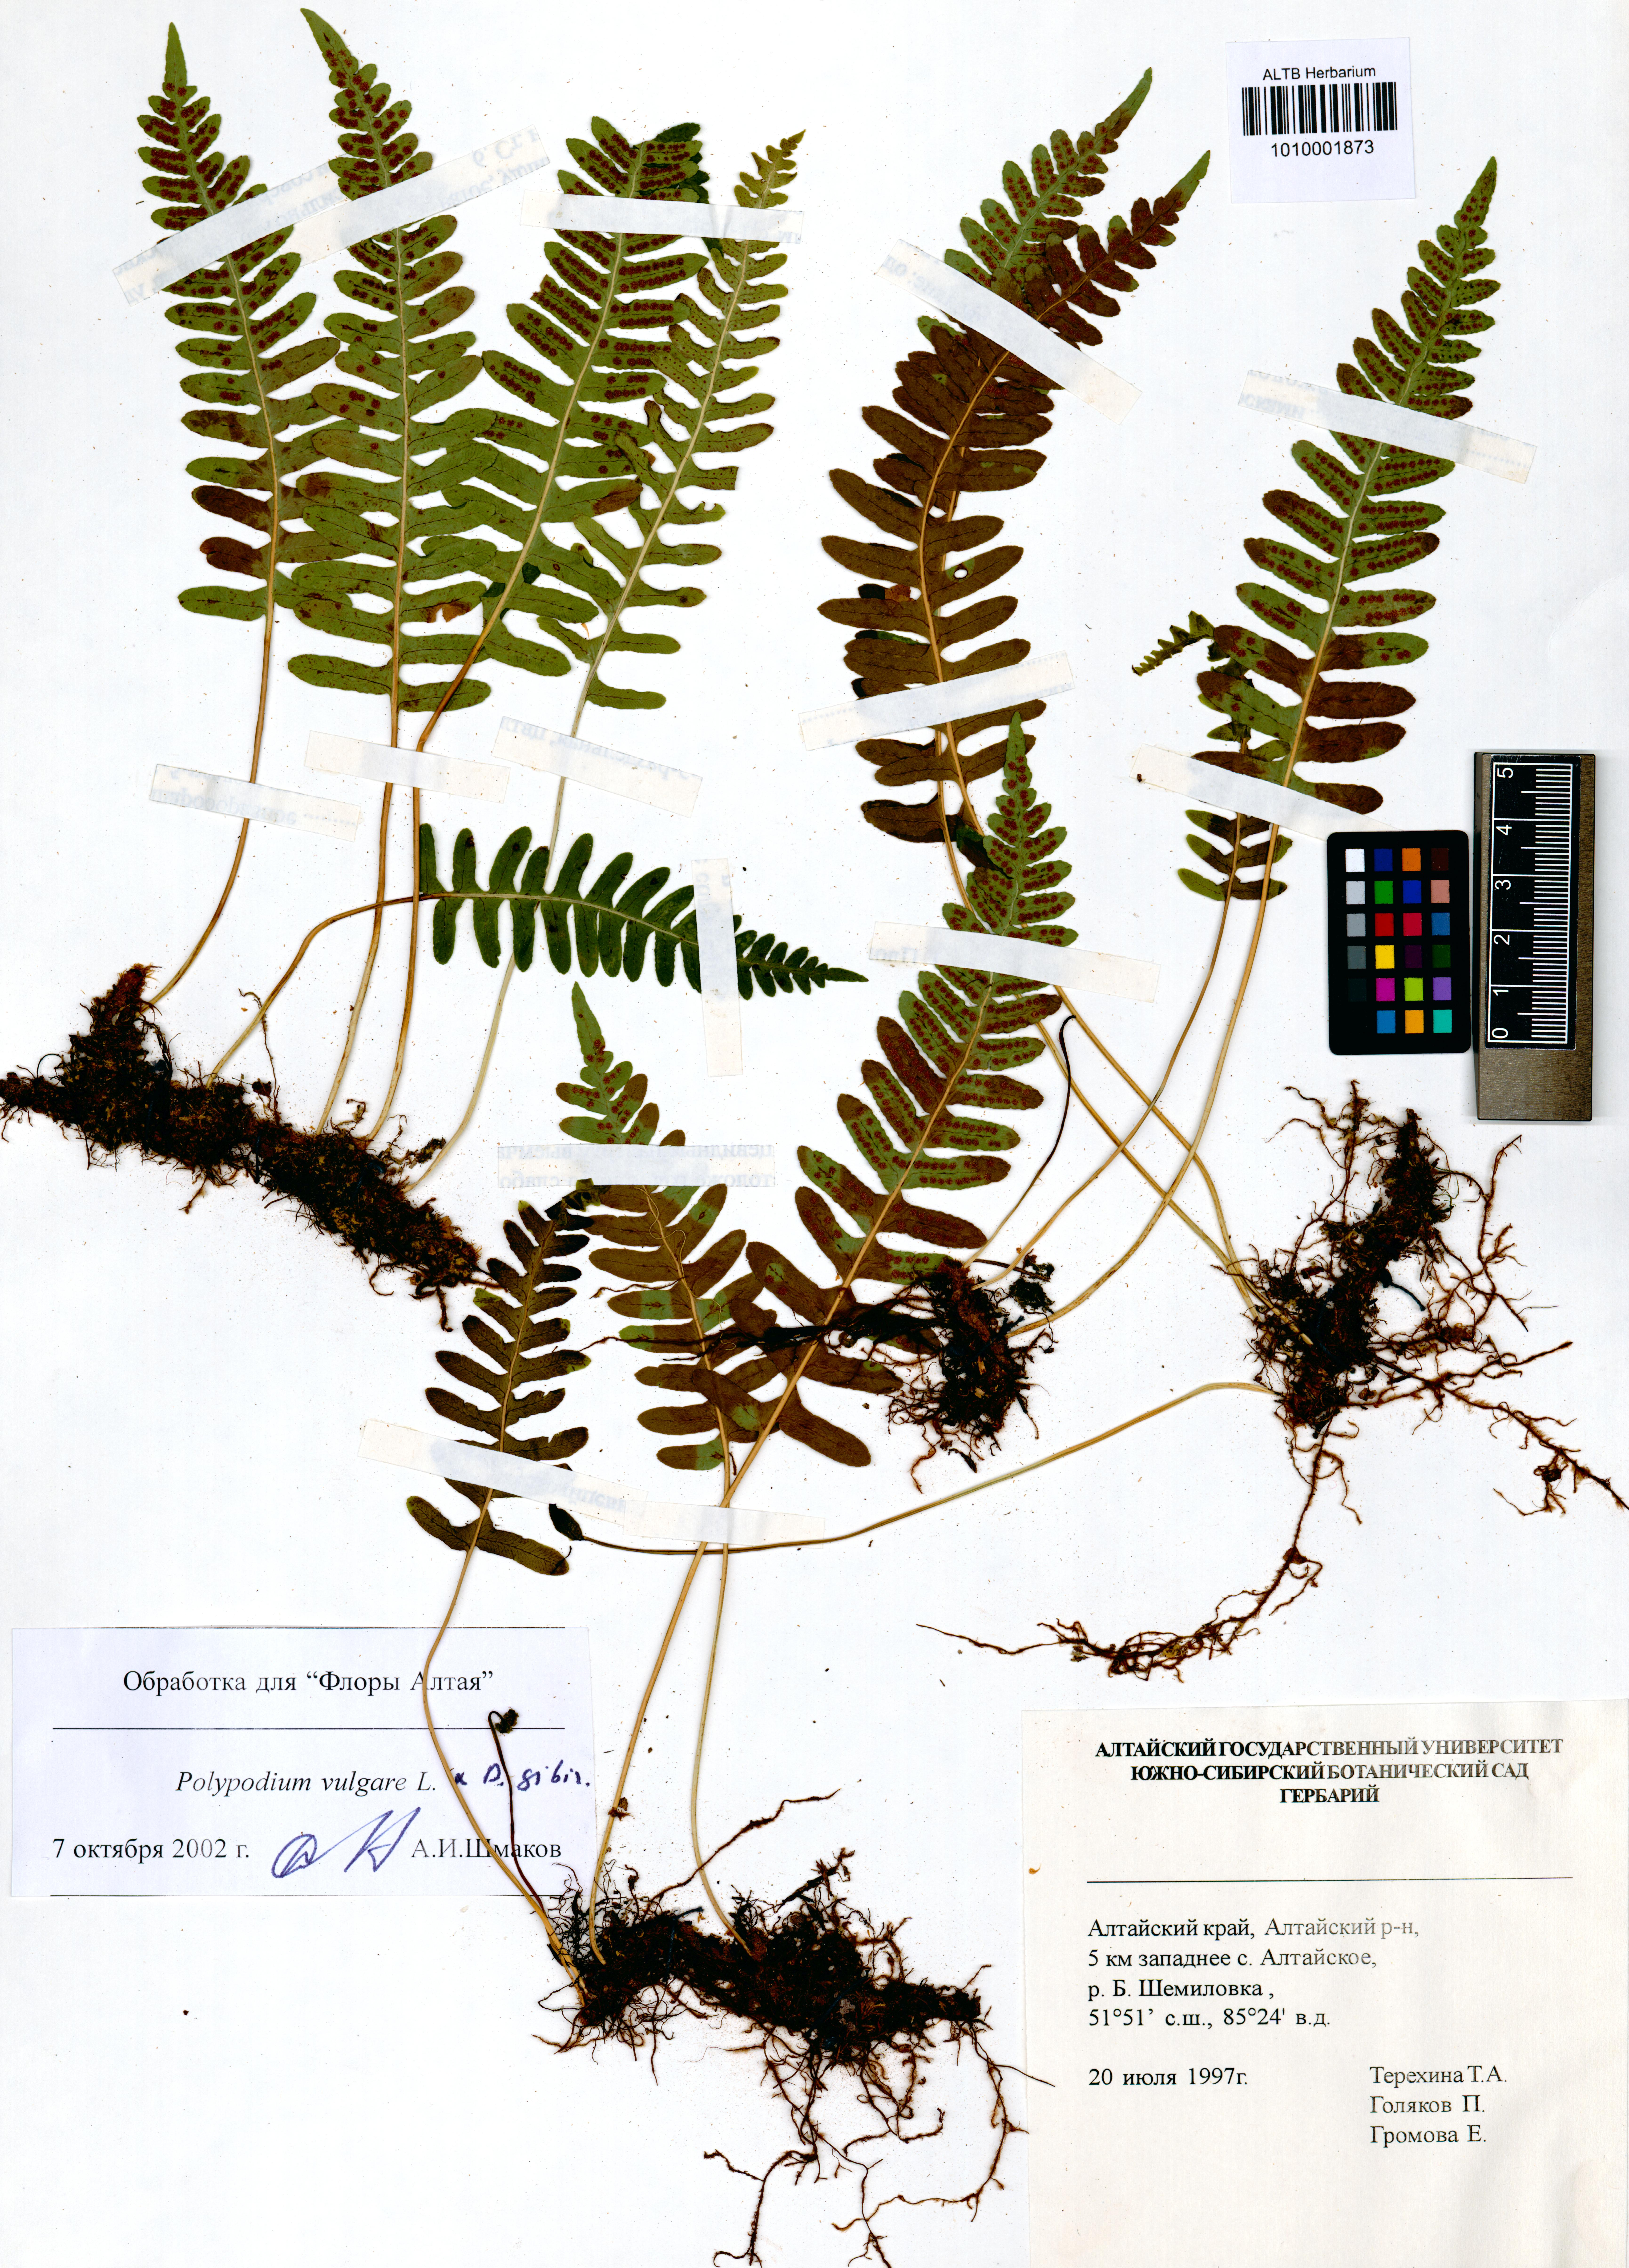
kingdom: Plantae
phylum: Tracheophyta
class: Polypodiopsida
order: Polypodiales
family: Polypodiaceae
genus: Polypodium
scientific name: Polypodium vulgare
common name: Common polypody
